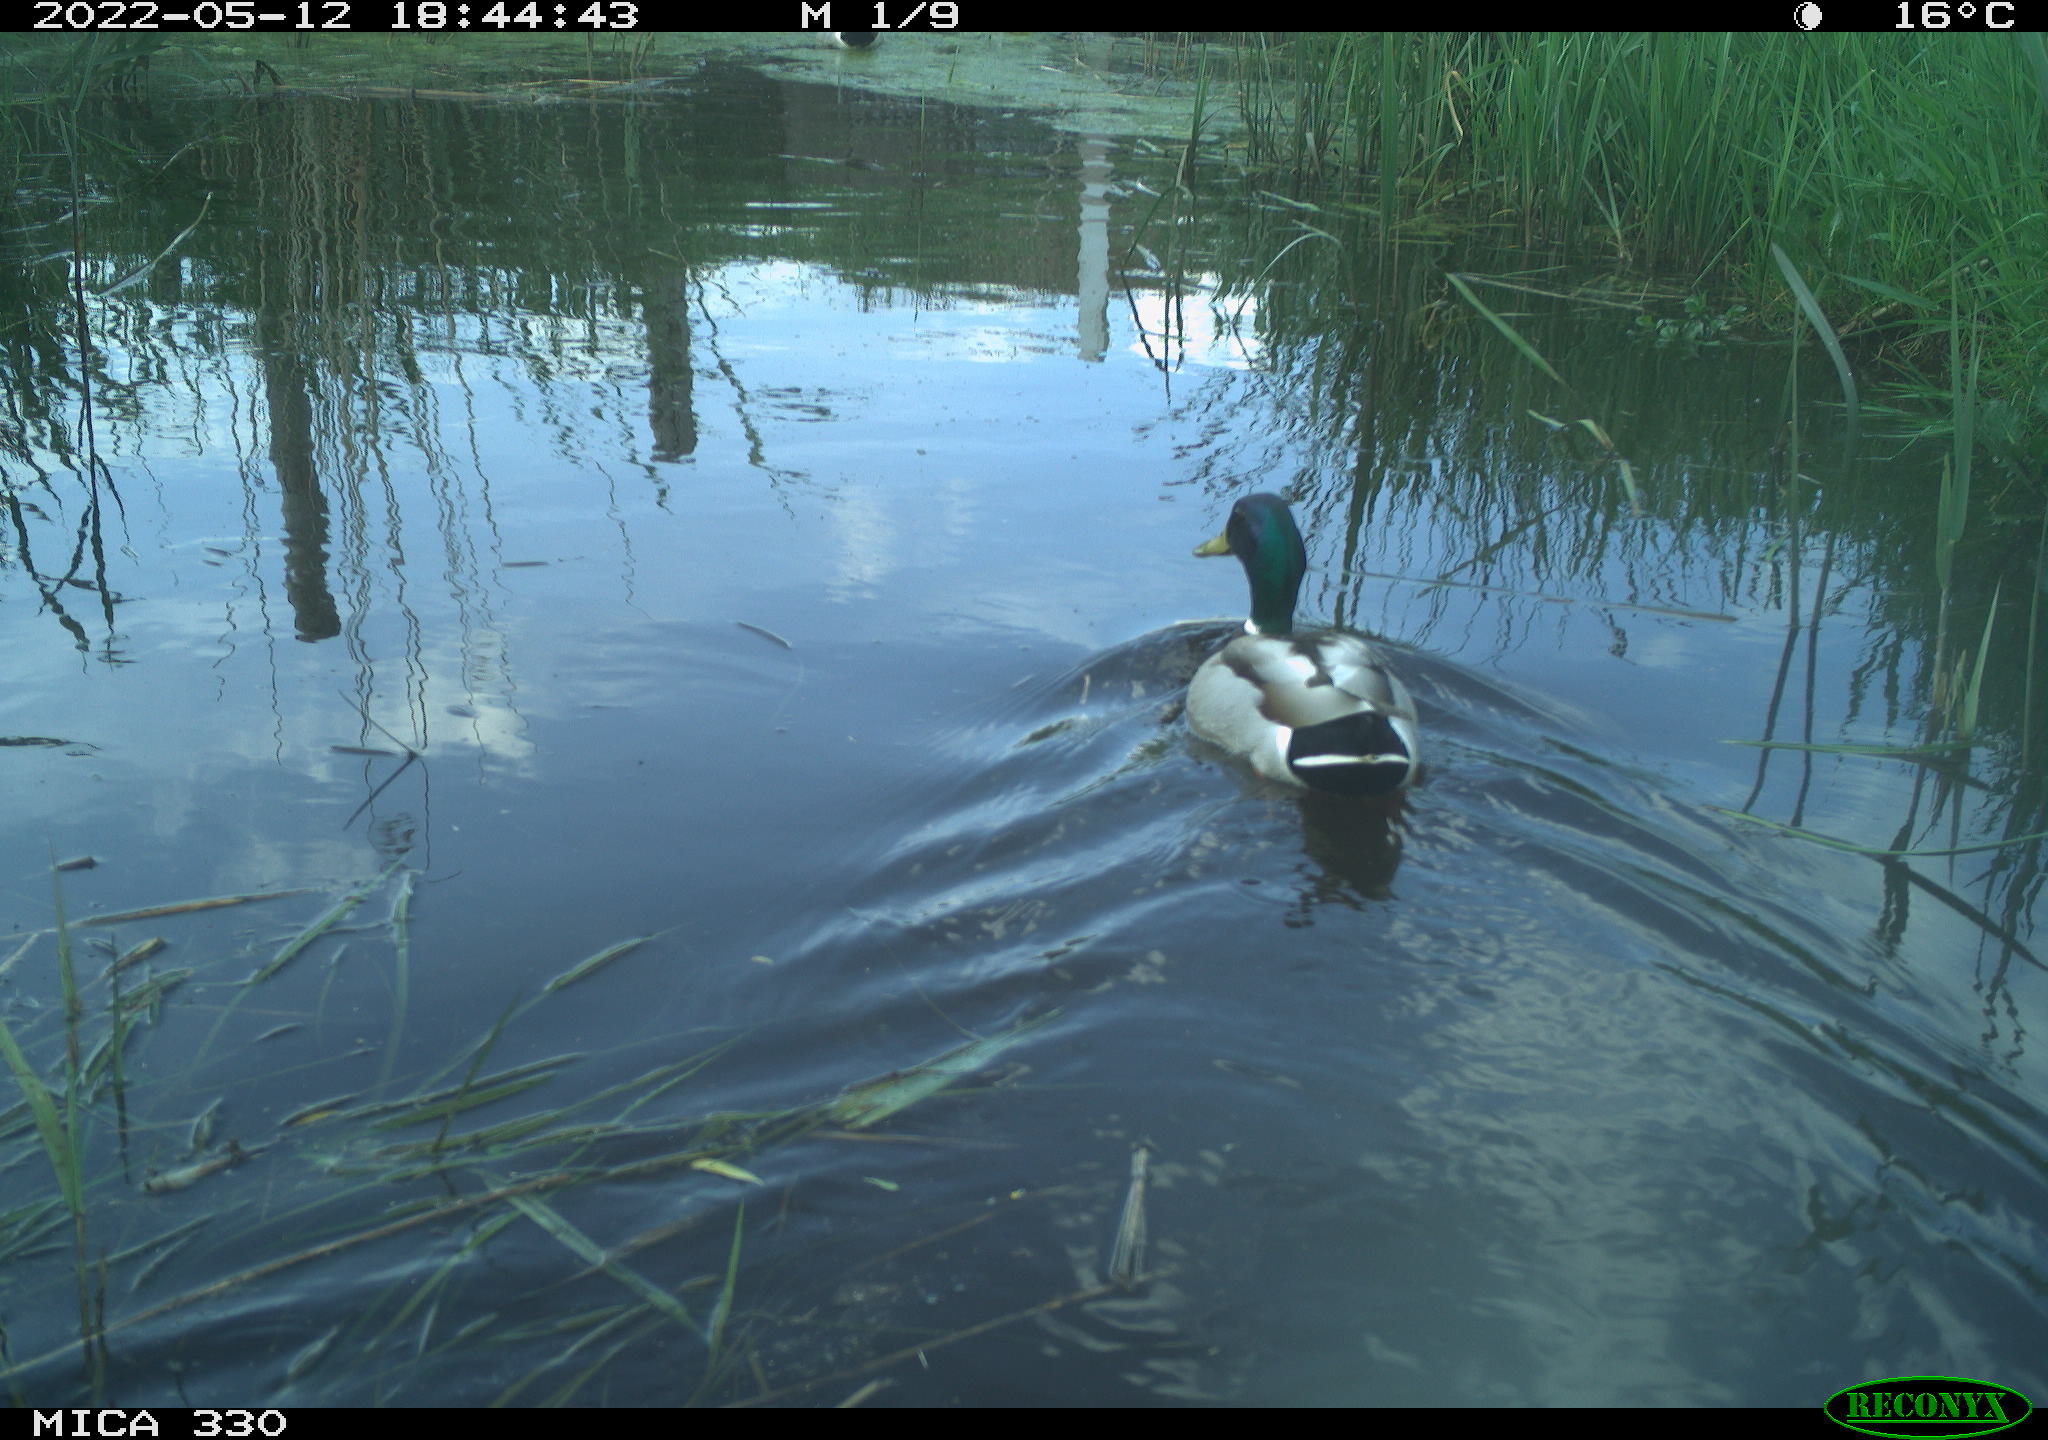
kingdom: Animalia
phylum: Chordata
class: Aves
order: Anseriformes
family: Anatidae
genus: Anas
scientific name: Anas platyrhynchos
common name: Mallard
